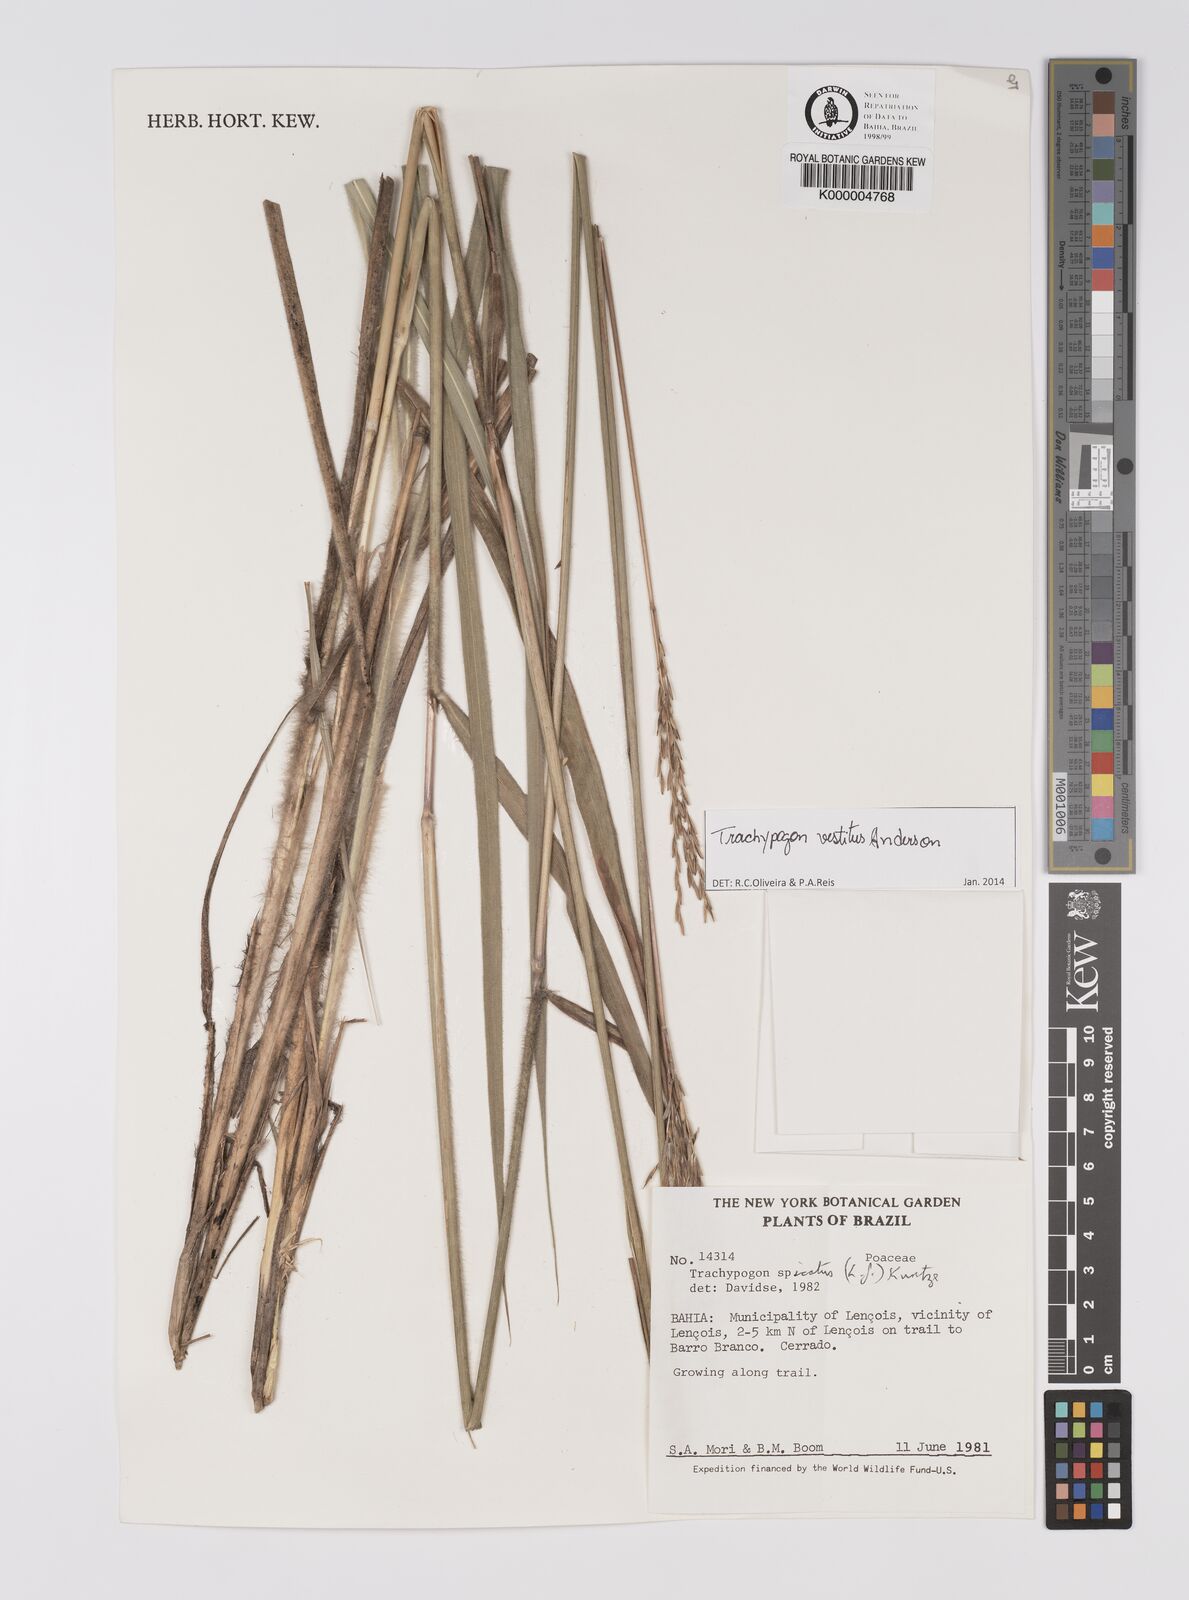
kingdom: Plantae
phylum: Tracheophyta
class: Liliopsida
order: Poales
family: Poaceae
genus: Trachypogon
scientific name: Trachypogon spicatus
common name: Crinkle-awn
